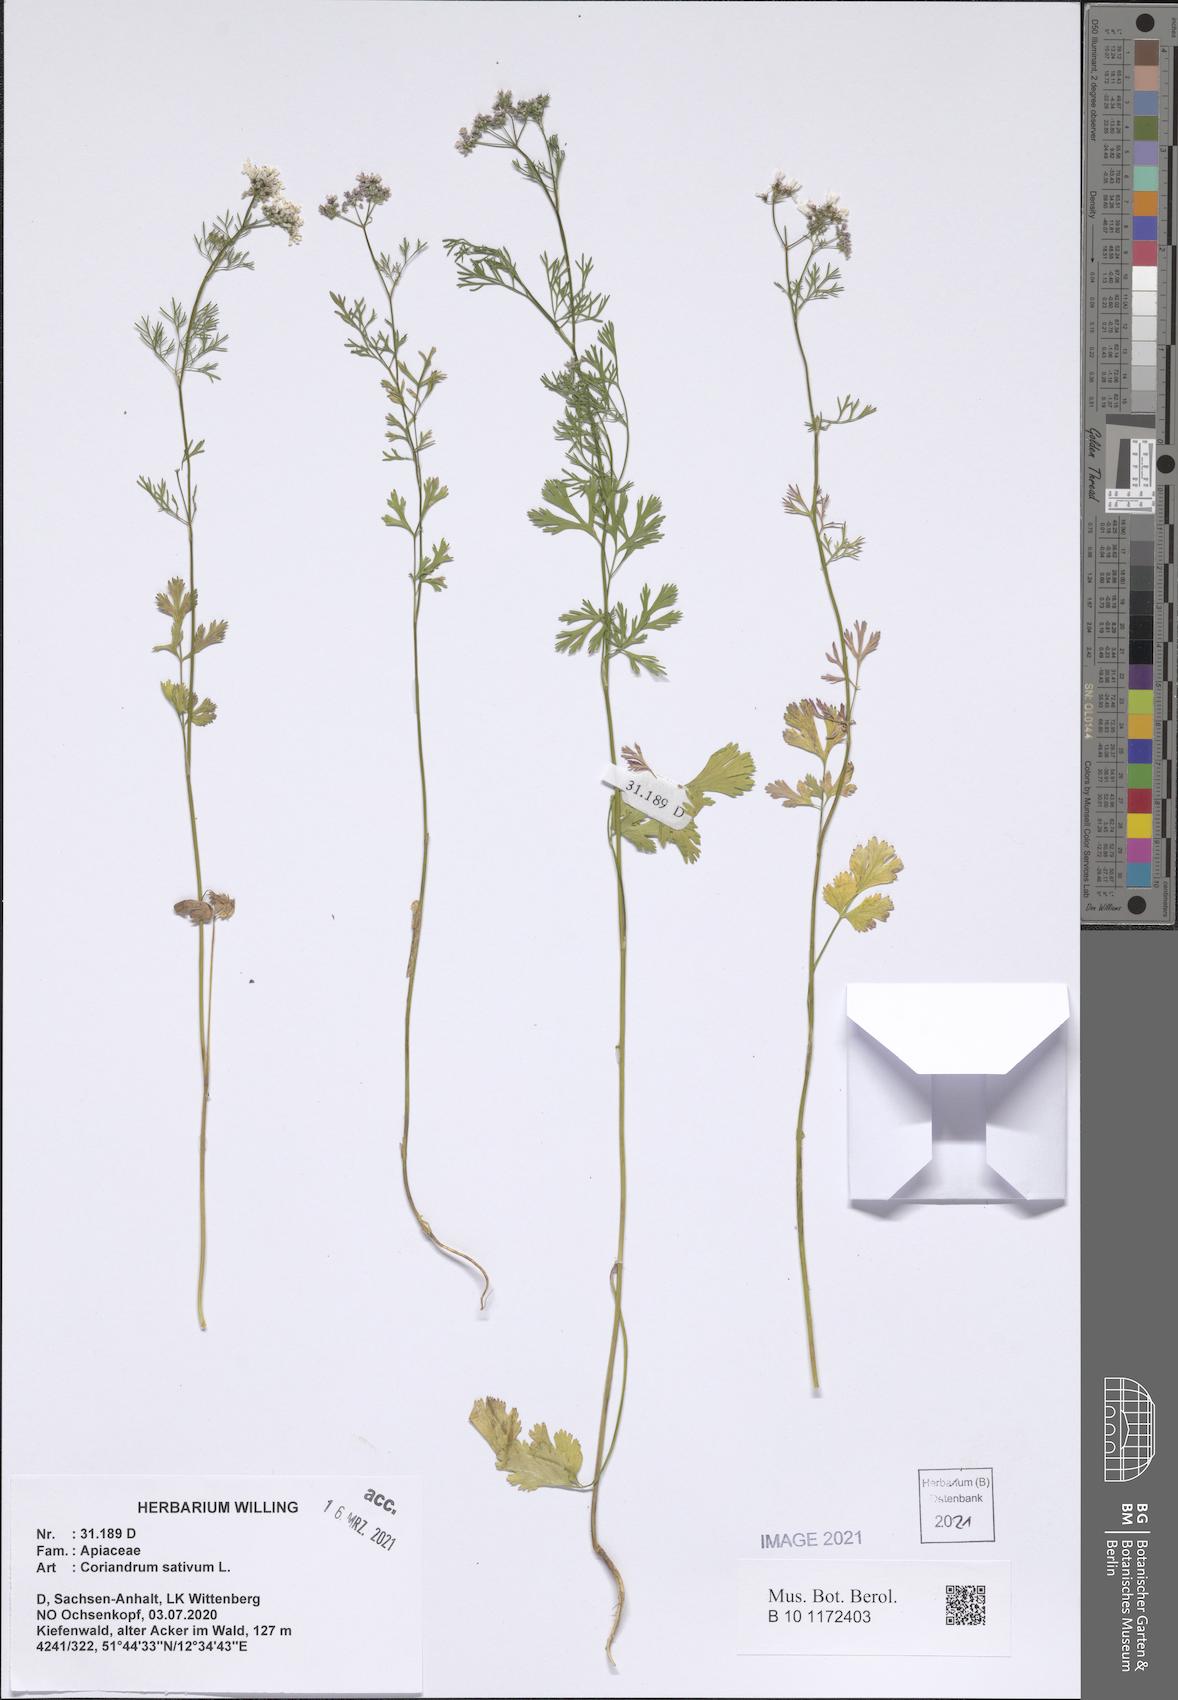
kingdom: Plantae
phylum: Tracheophyta
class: Magnoliopsida
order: Apiales
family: Apiaceae
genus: Coriandrum
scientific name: Coriandrum sativum
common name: Coriander
